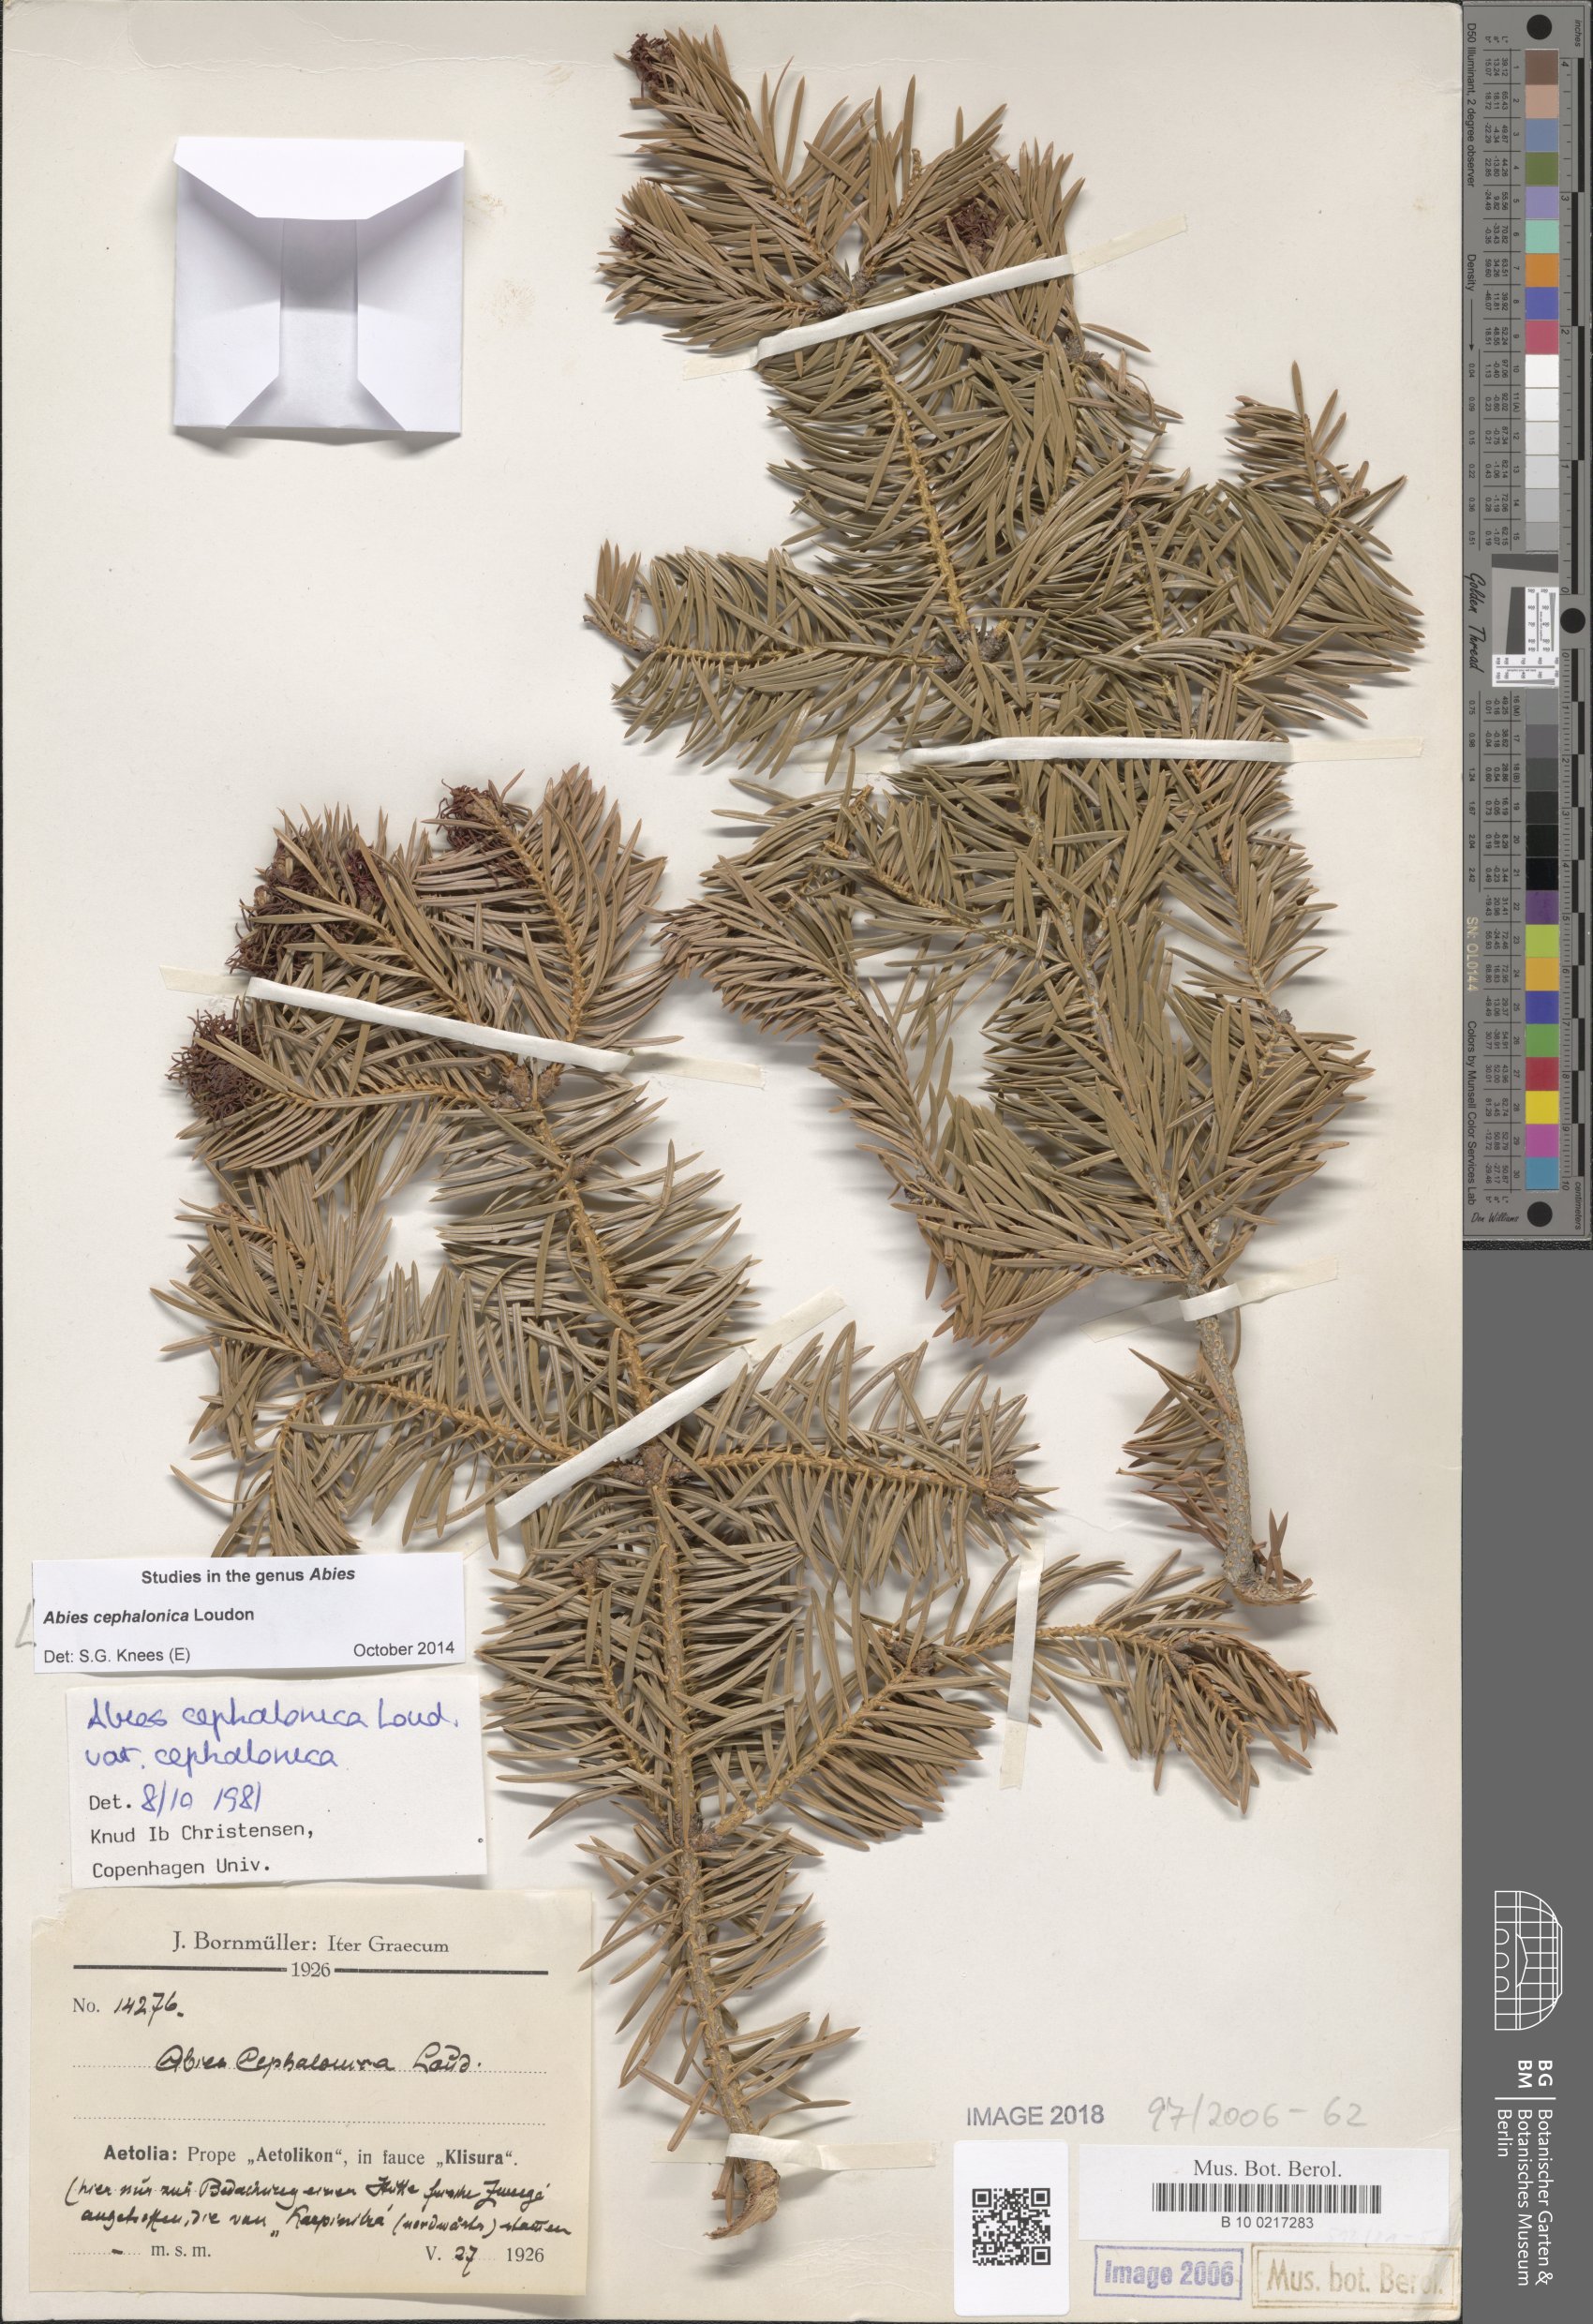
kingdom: Plantae
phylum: Tracheophyta
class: Pinopsida
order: Pinales
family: Pinaceae
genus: Abies
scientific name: Abies cephalonica
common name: Greek fir
